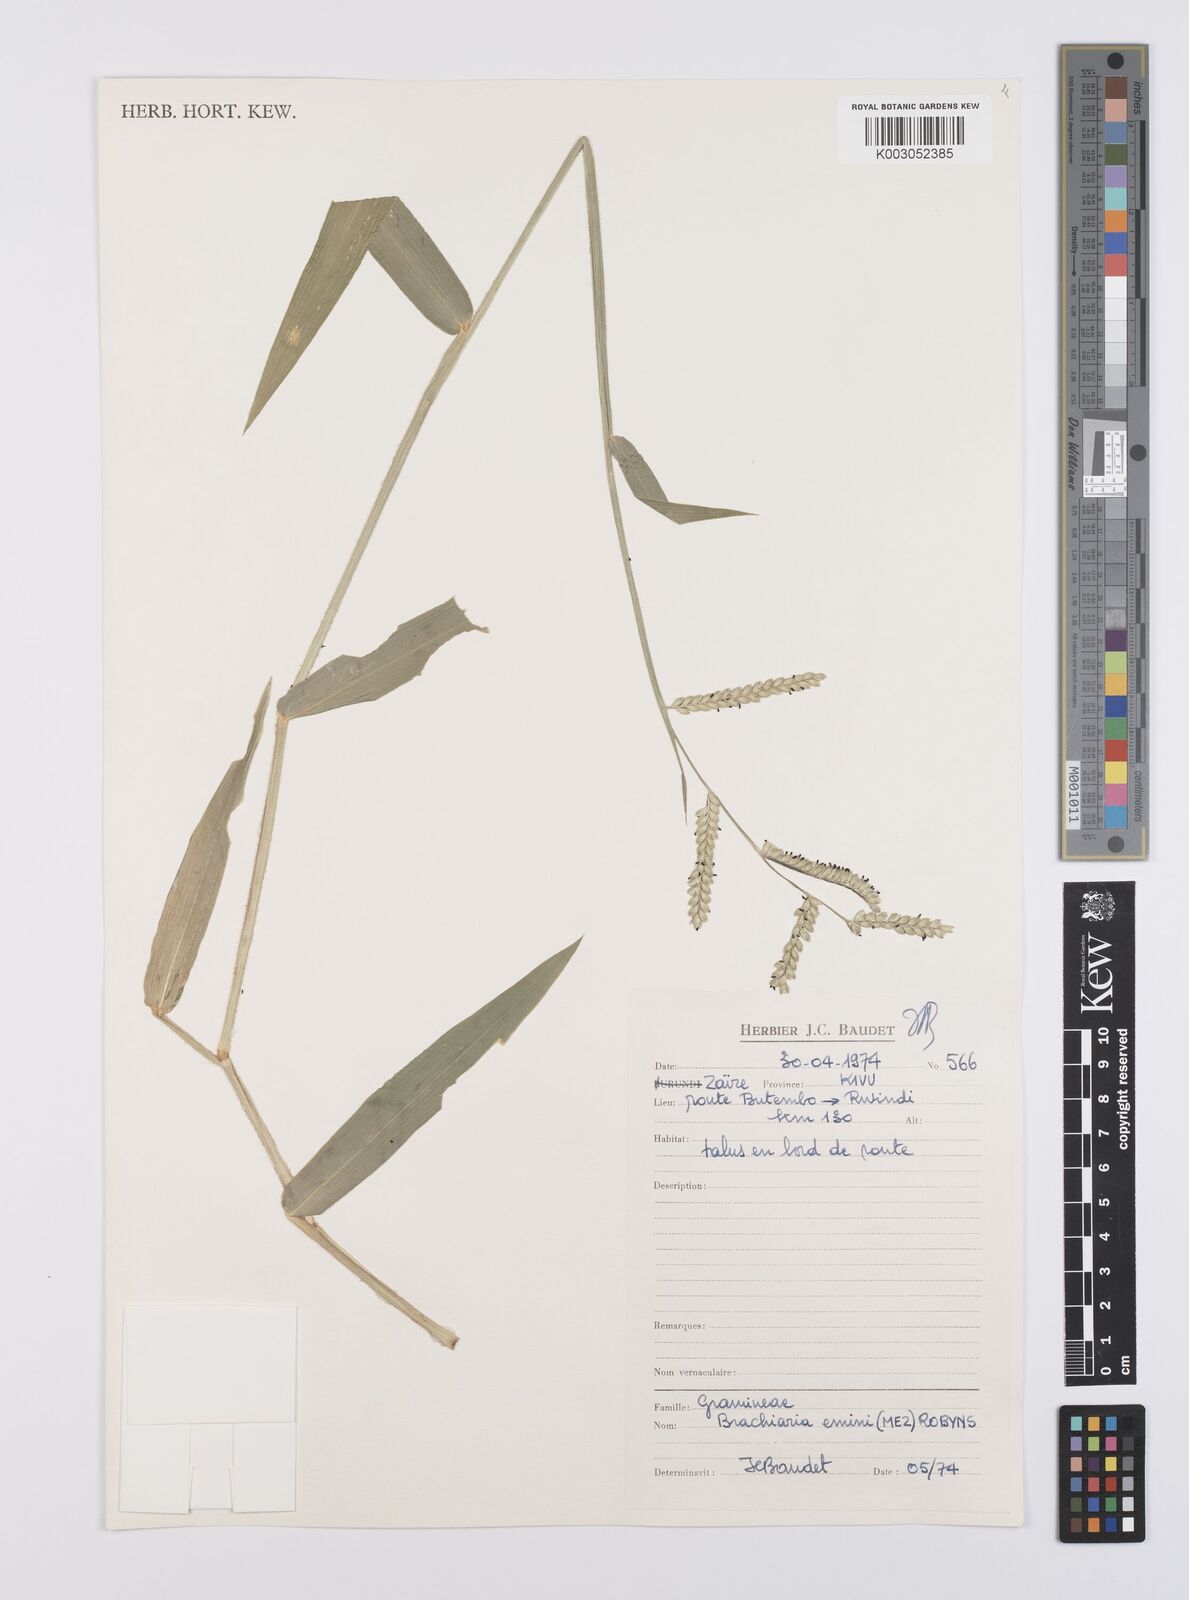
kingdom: Plantae
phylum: Tracheophyta
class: Liliopsida
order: Poales
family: Poaceae
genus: Urochloa
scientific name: Urochloa eminii
